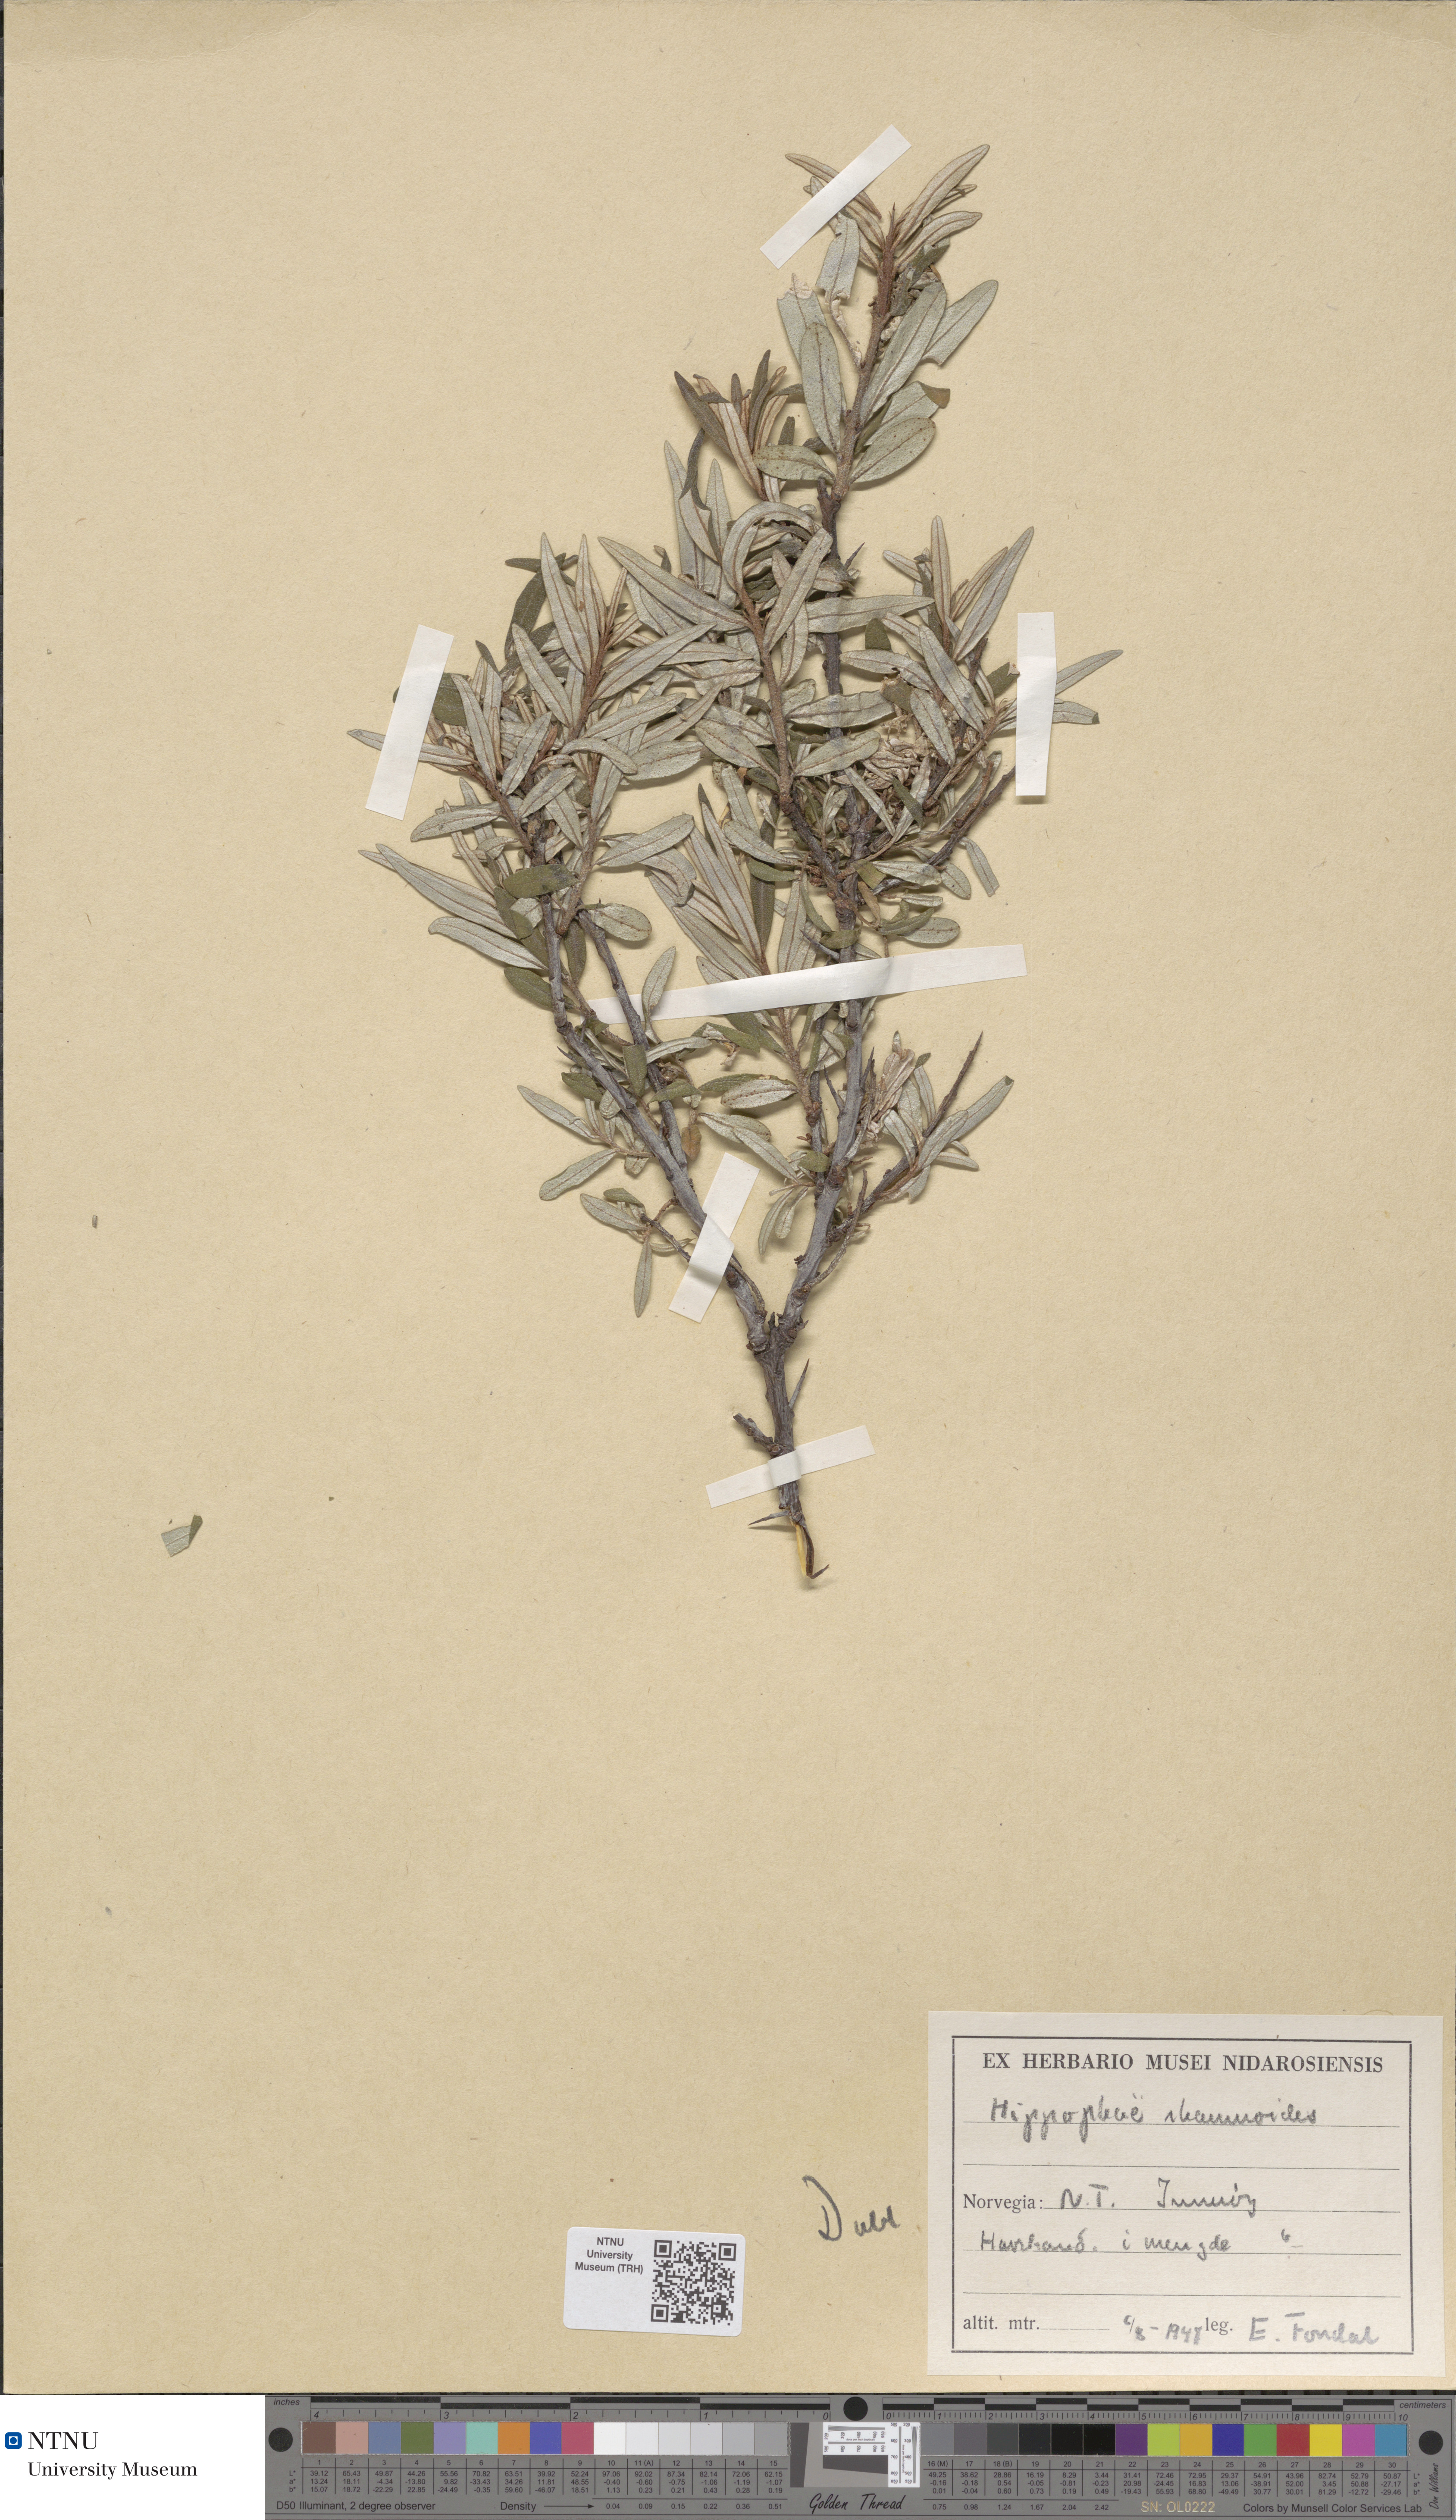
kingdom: Plantae
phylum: Tracheophyta
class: Magnoliopsida
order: Rosales
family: Elaeagnaceae
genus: Hippophae
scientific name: Hippophae rhamnoides
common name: Sea-buckthorn
